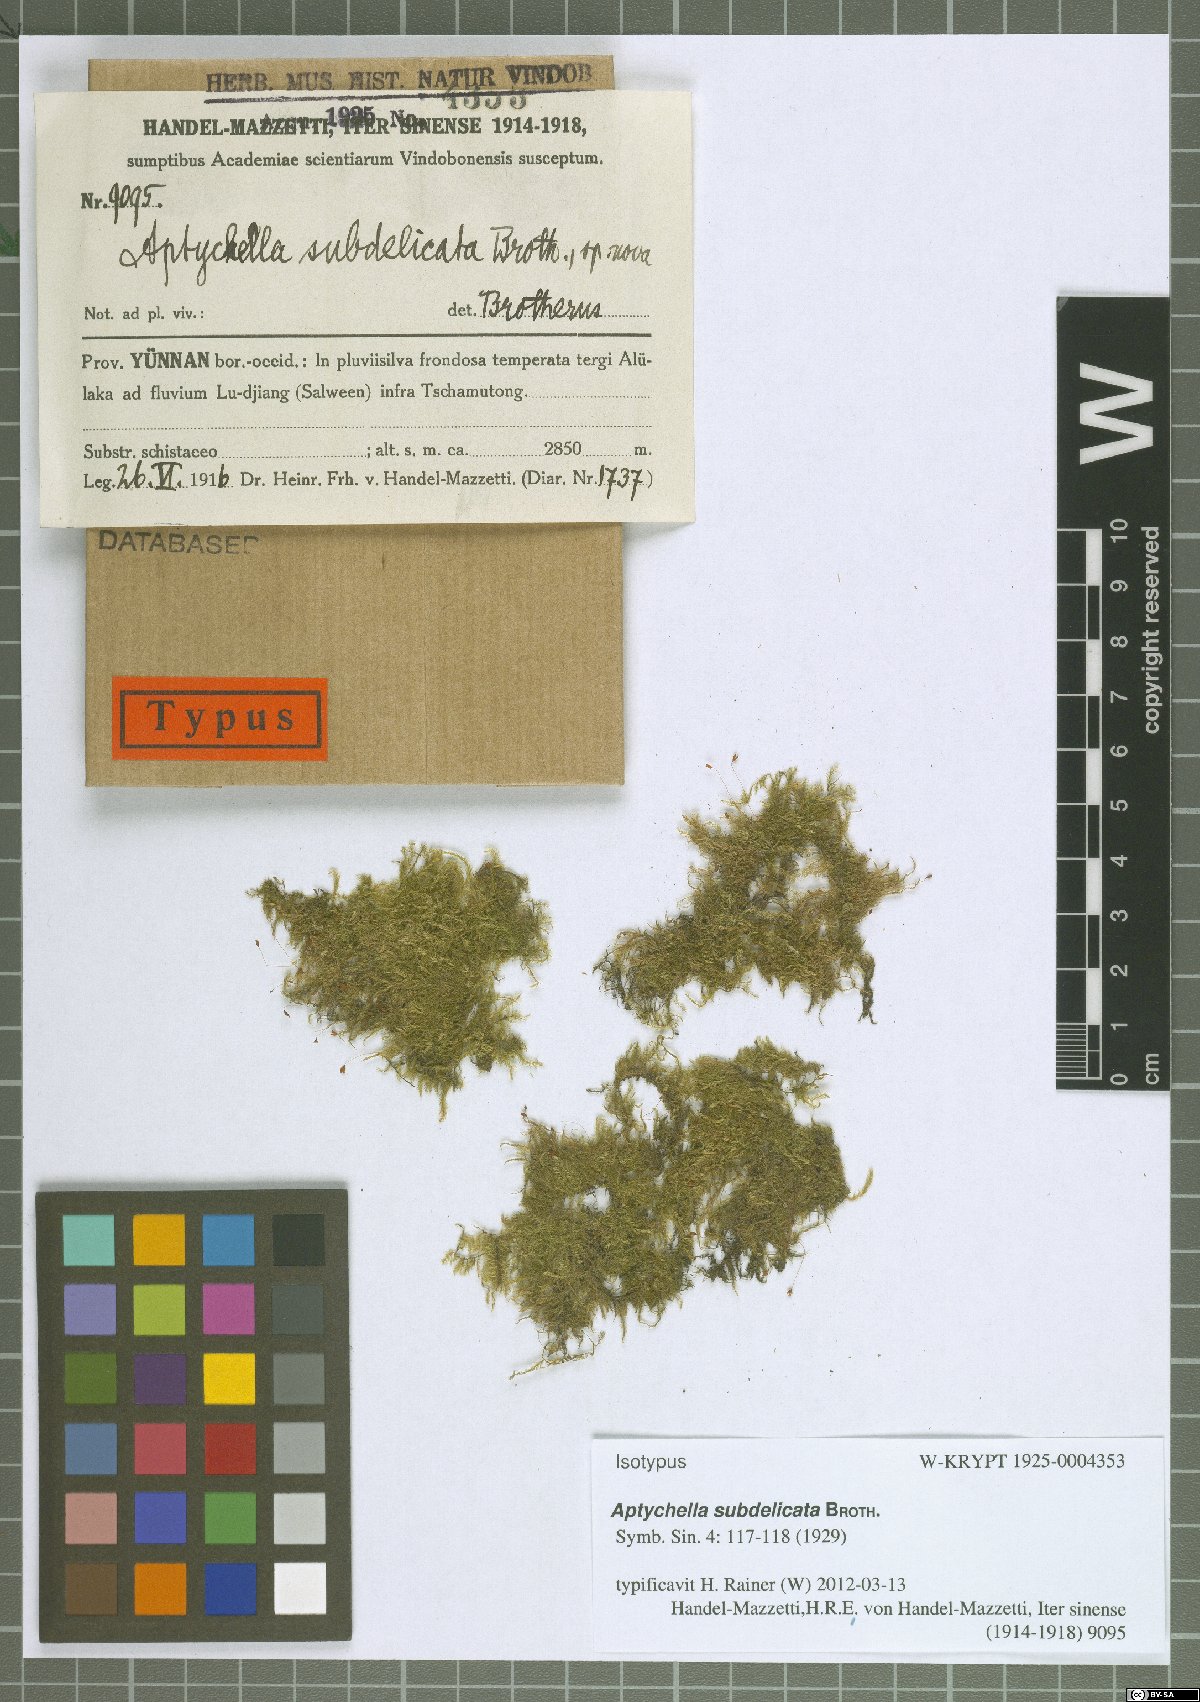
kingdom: Plantae
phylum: Bryophyta
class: Bryopsida
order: Hypnales
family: Pylaisiadelphaceae
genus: Aptychella
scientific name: Aptychella planula
